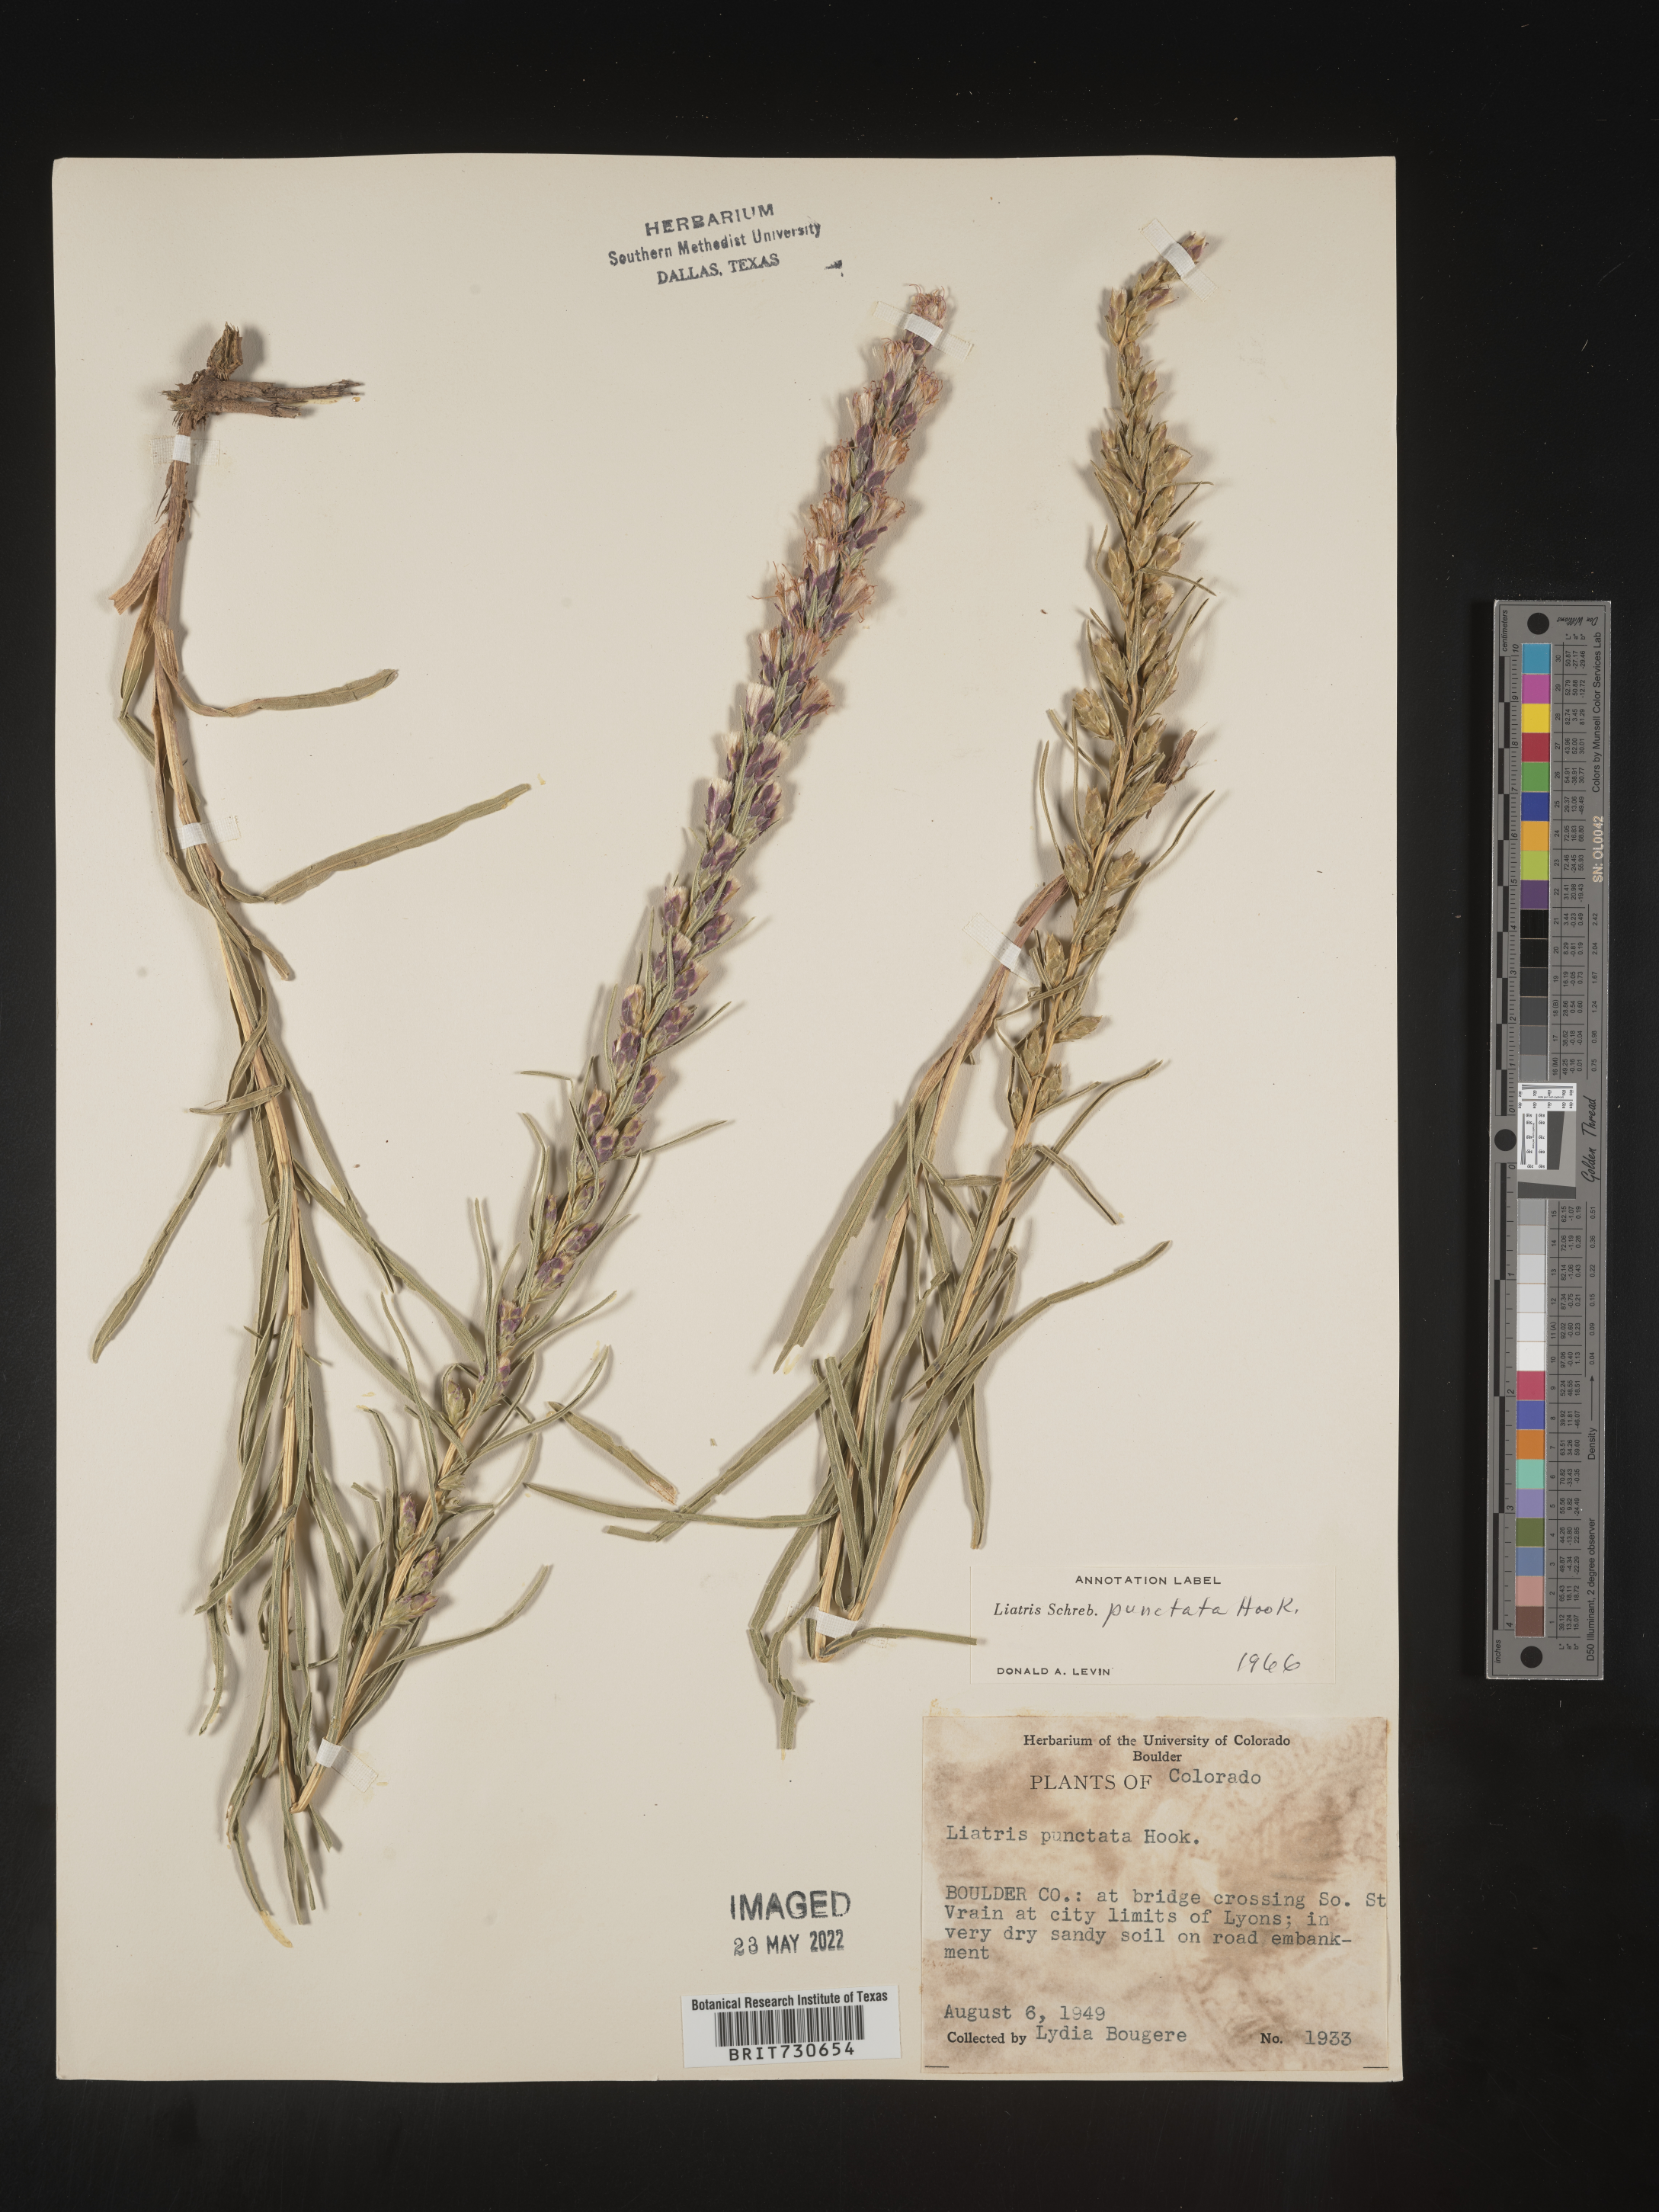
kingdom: Plantae
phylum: Tracheophyta
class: Magnoliopsida
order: Asterales
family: Asteraceae
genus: Liatris
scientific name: Liatris punctata
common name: Dotted gayfeather
